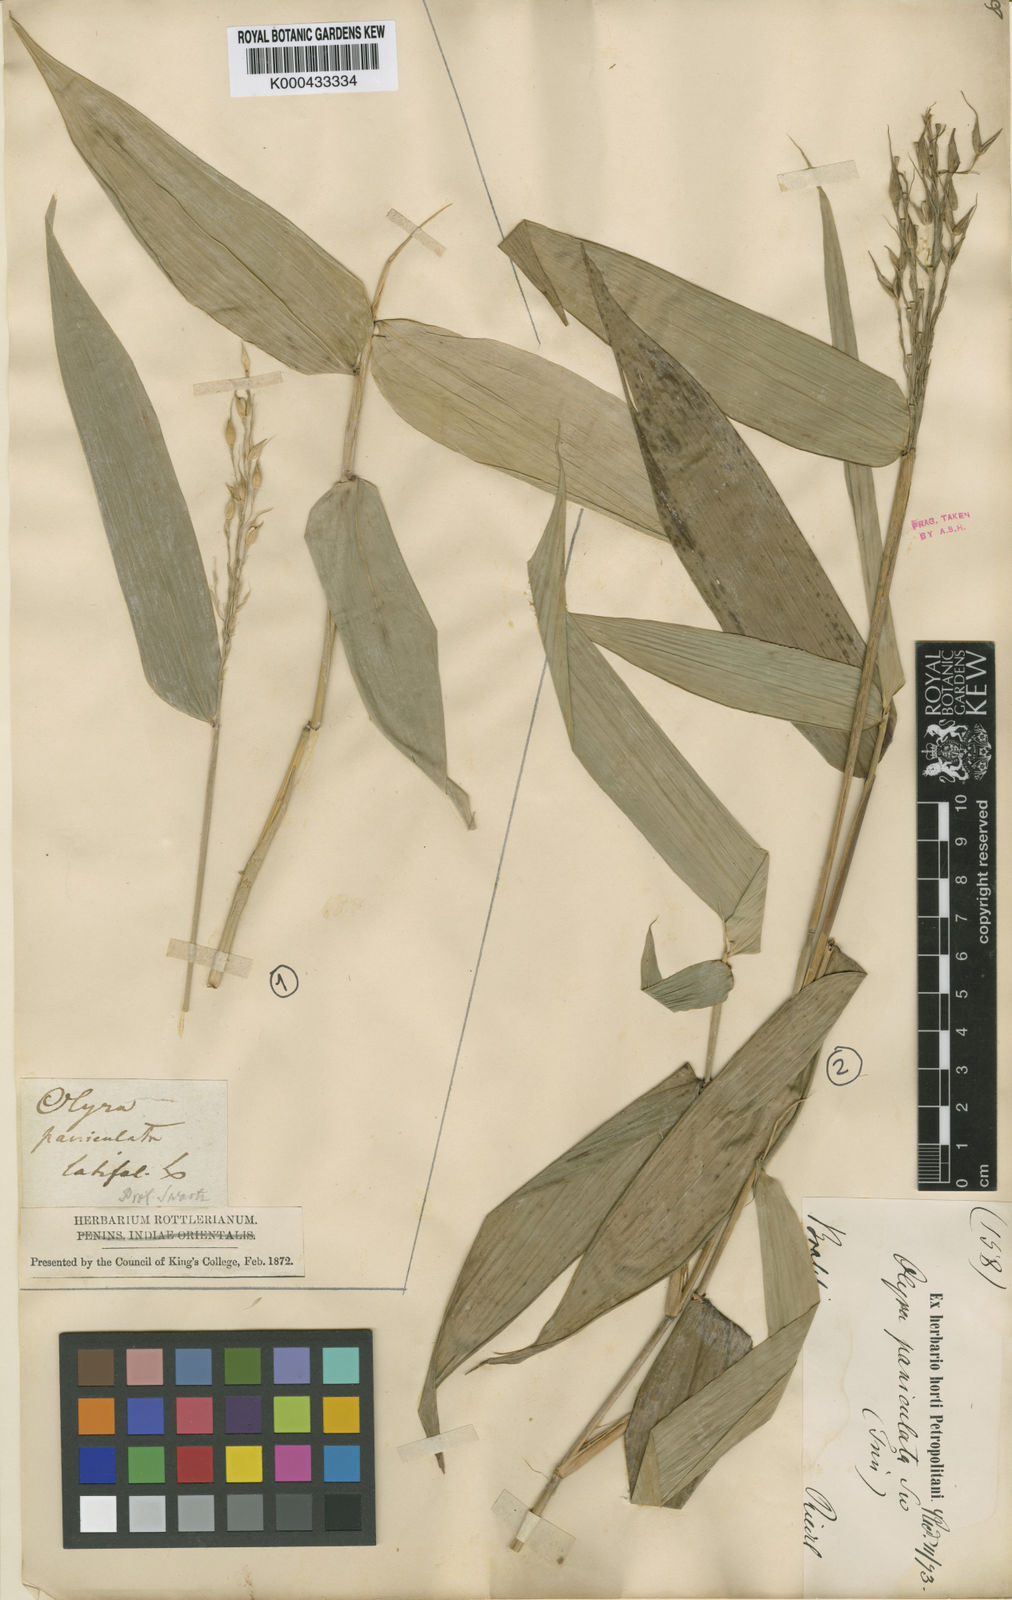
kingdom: Plantae
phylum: Tracheophyta
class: Liliopsida
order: Poales
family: Poaceae
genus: Olyra
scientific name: Olyra latifolia
